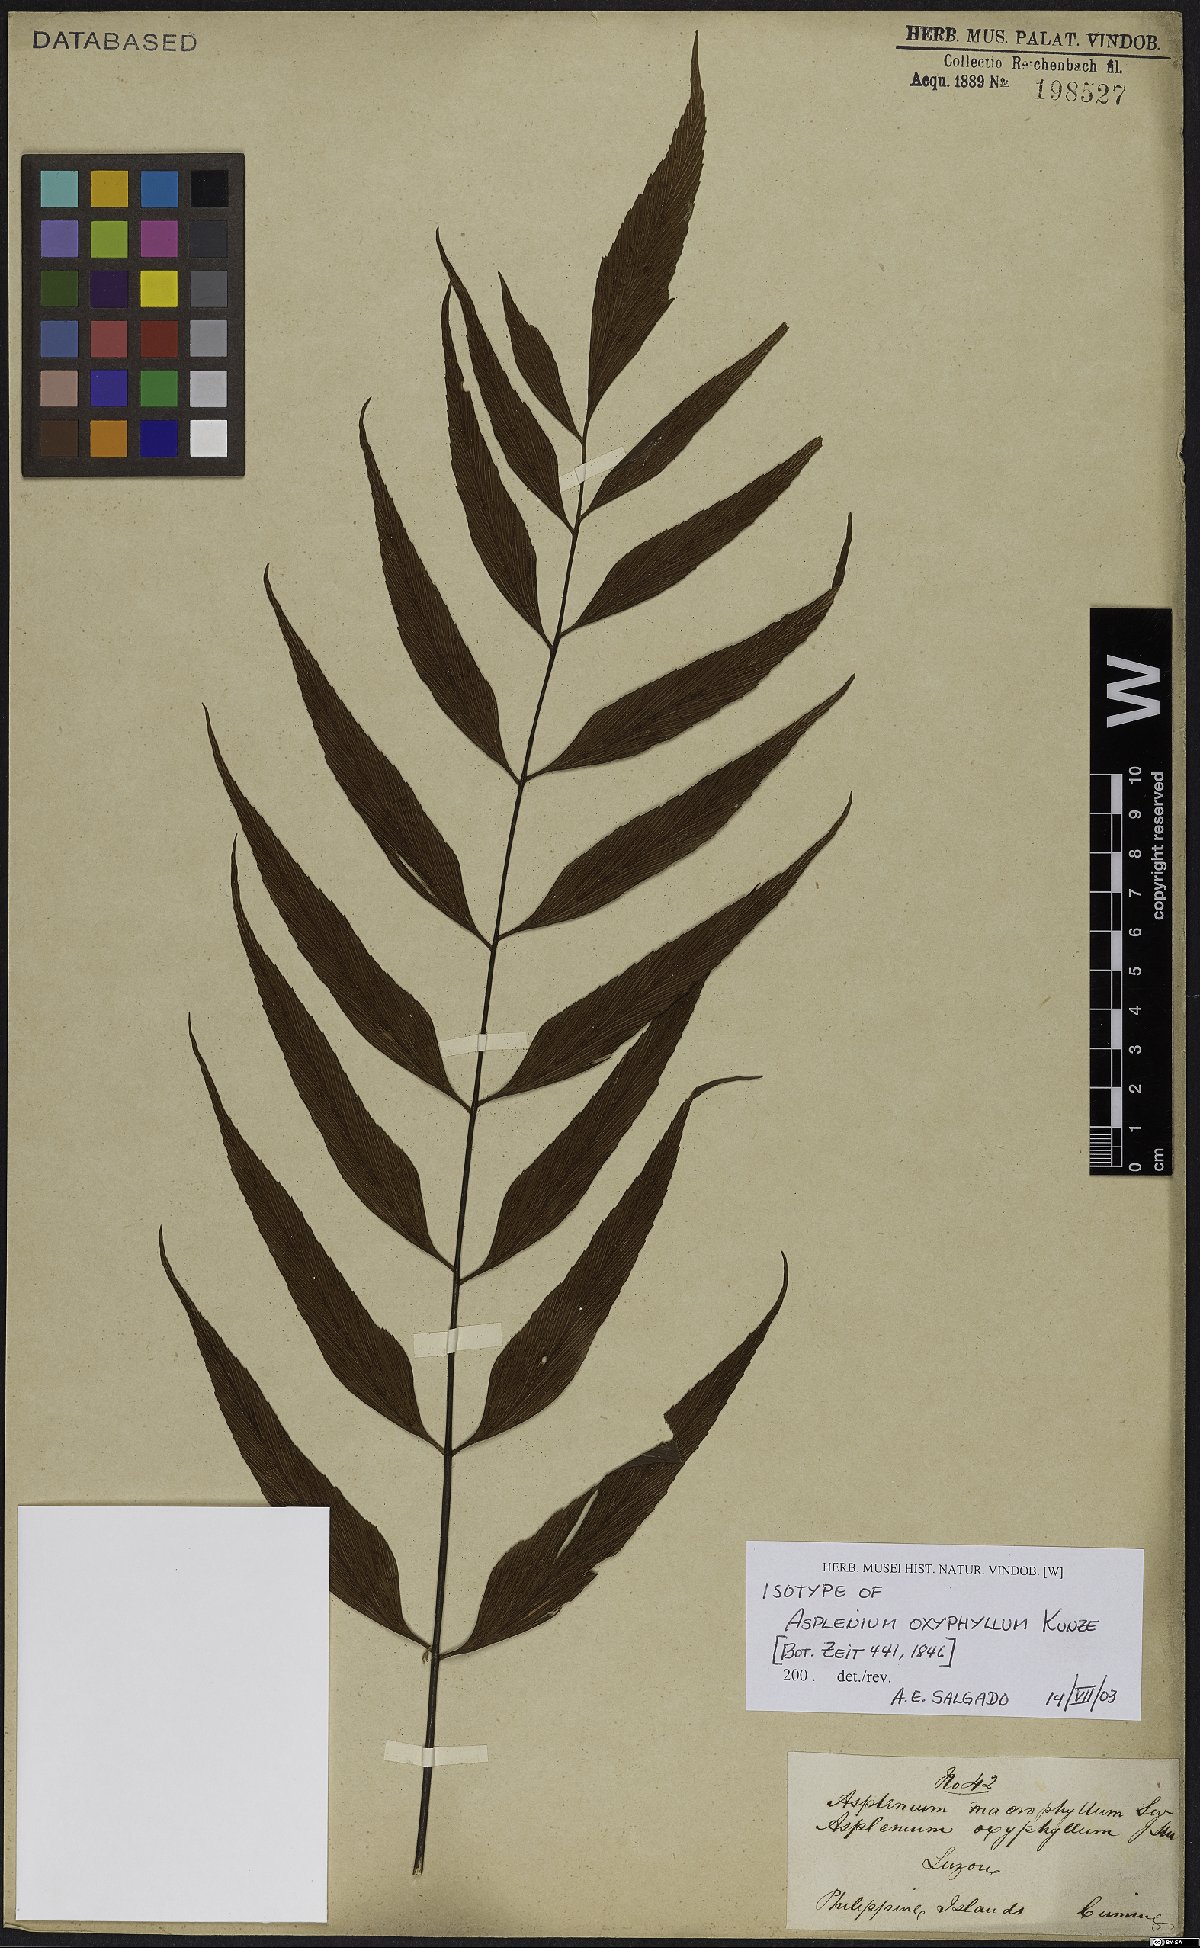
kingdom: Plantae
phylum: Tracheophyta
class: Polypodiopsida
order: Polypodiales
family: Aspleniaceae
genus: Asplenium
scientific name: Asplenium macrophyllum
